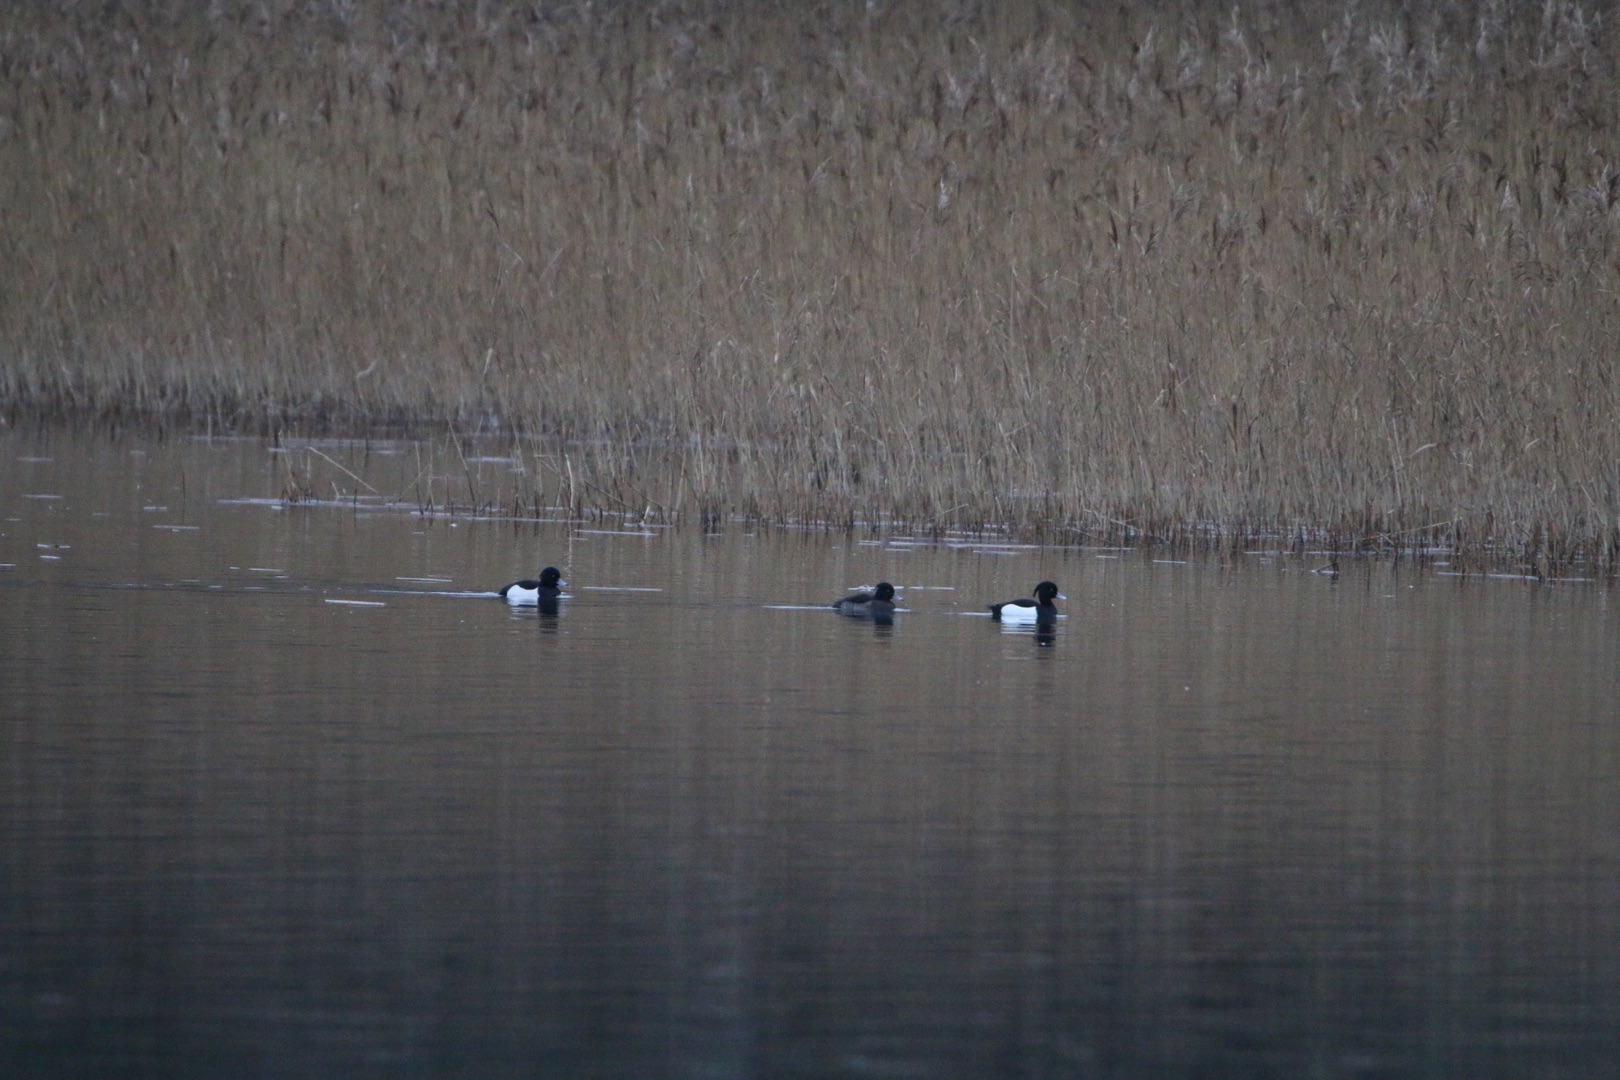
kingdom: Animalia
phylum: Chordata
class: Aves
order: Anseriformes
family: Anatidae
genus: Aythya
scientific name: Aythya fuligula
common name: Troldand
